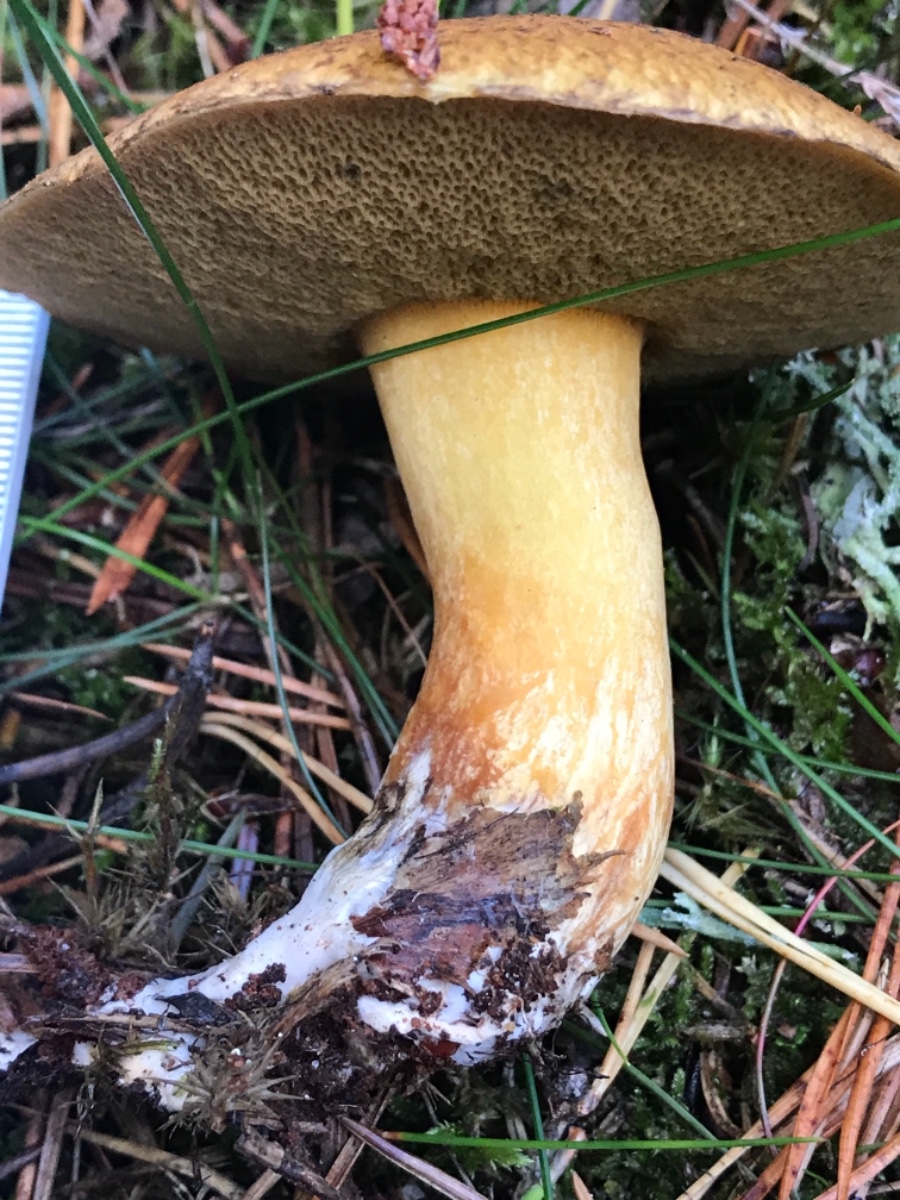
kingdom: Fungi
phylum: Basidiomycota
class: Agaricomycetes
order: Boletales
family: Suillaceae
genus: Suillus
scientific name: Suillus variegatus
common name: broget slimrørhat
